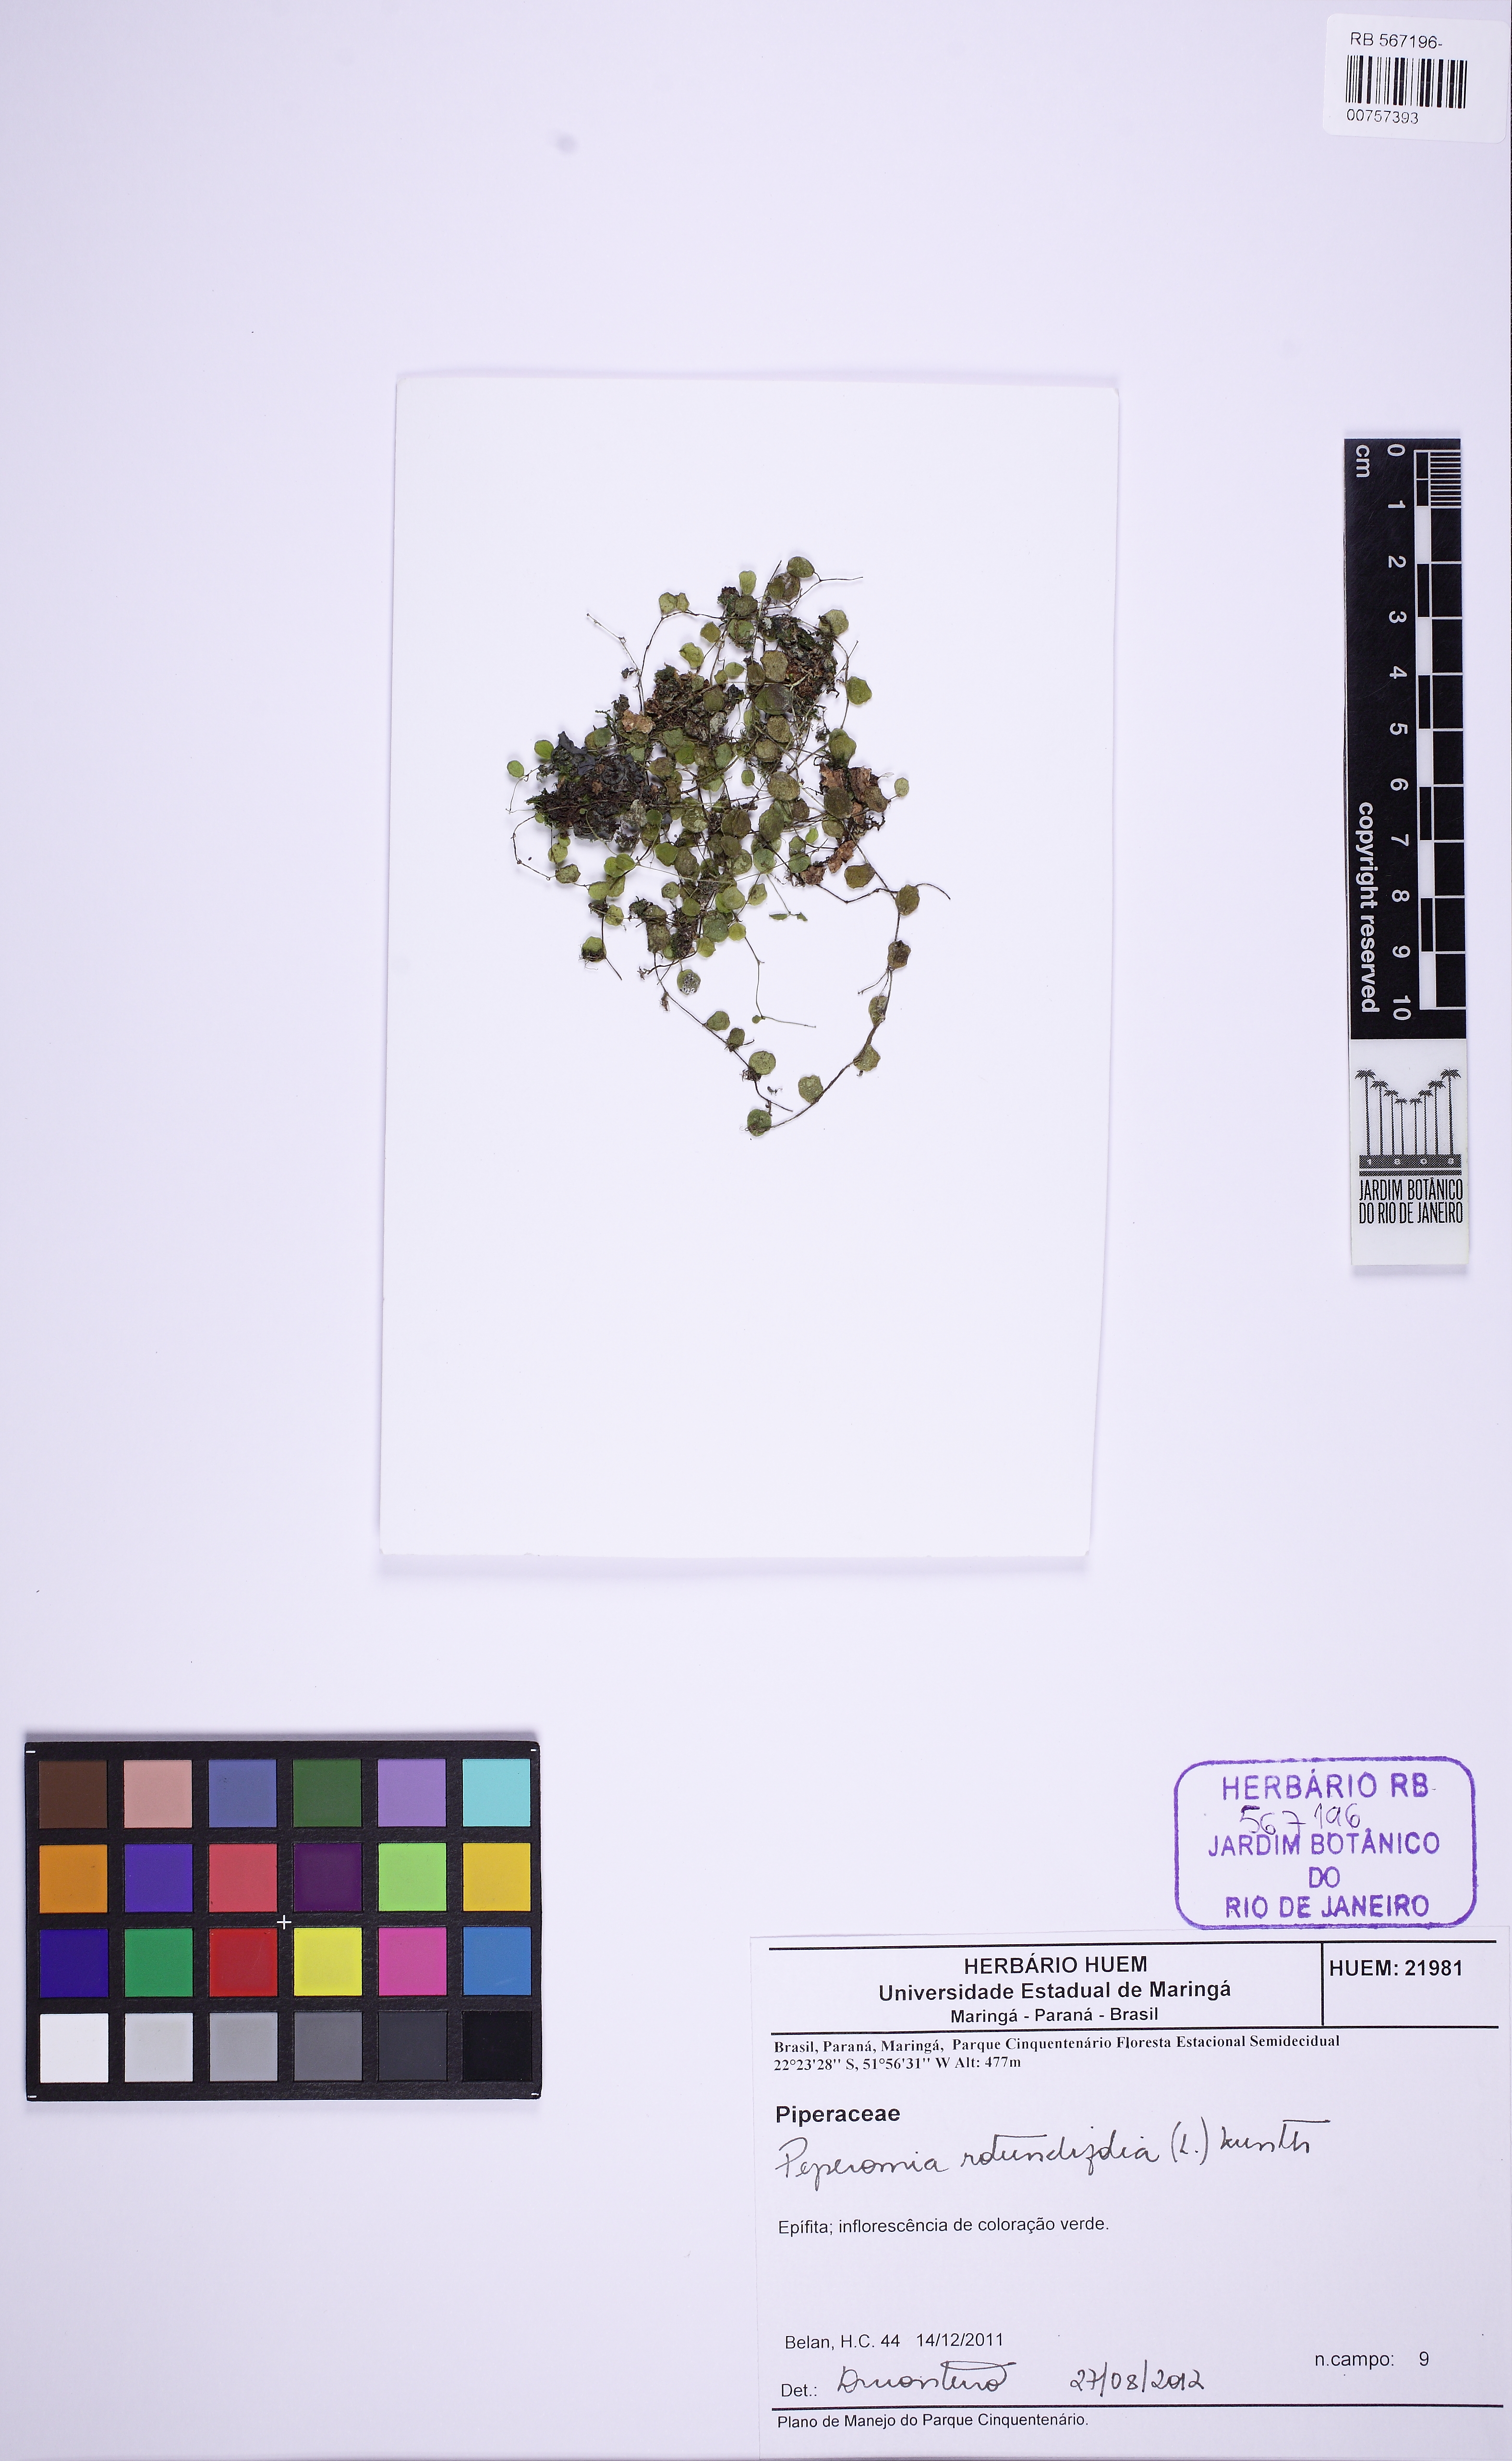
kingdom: Plantae
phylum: Tracheophyta
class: Magnoliopsida
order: Piperales
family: Piperaceae
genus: Peperomia
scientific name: Peperomia rotundifolia
